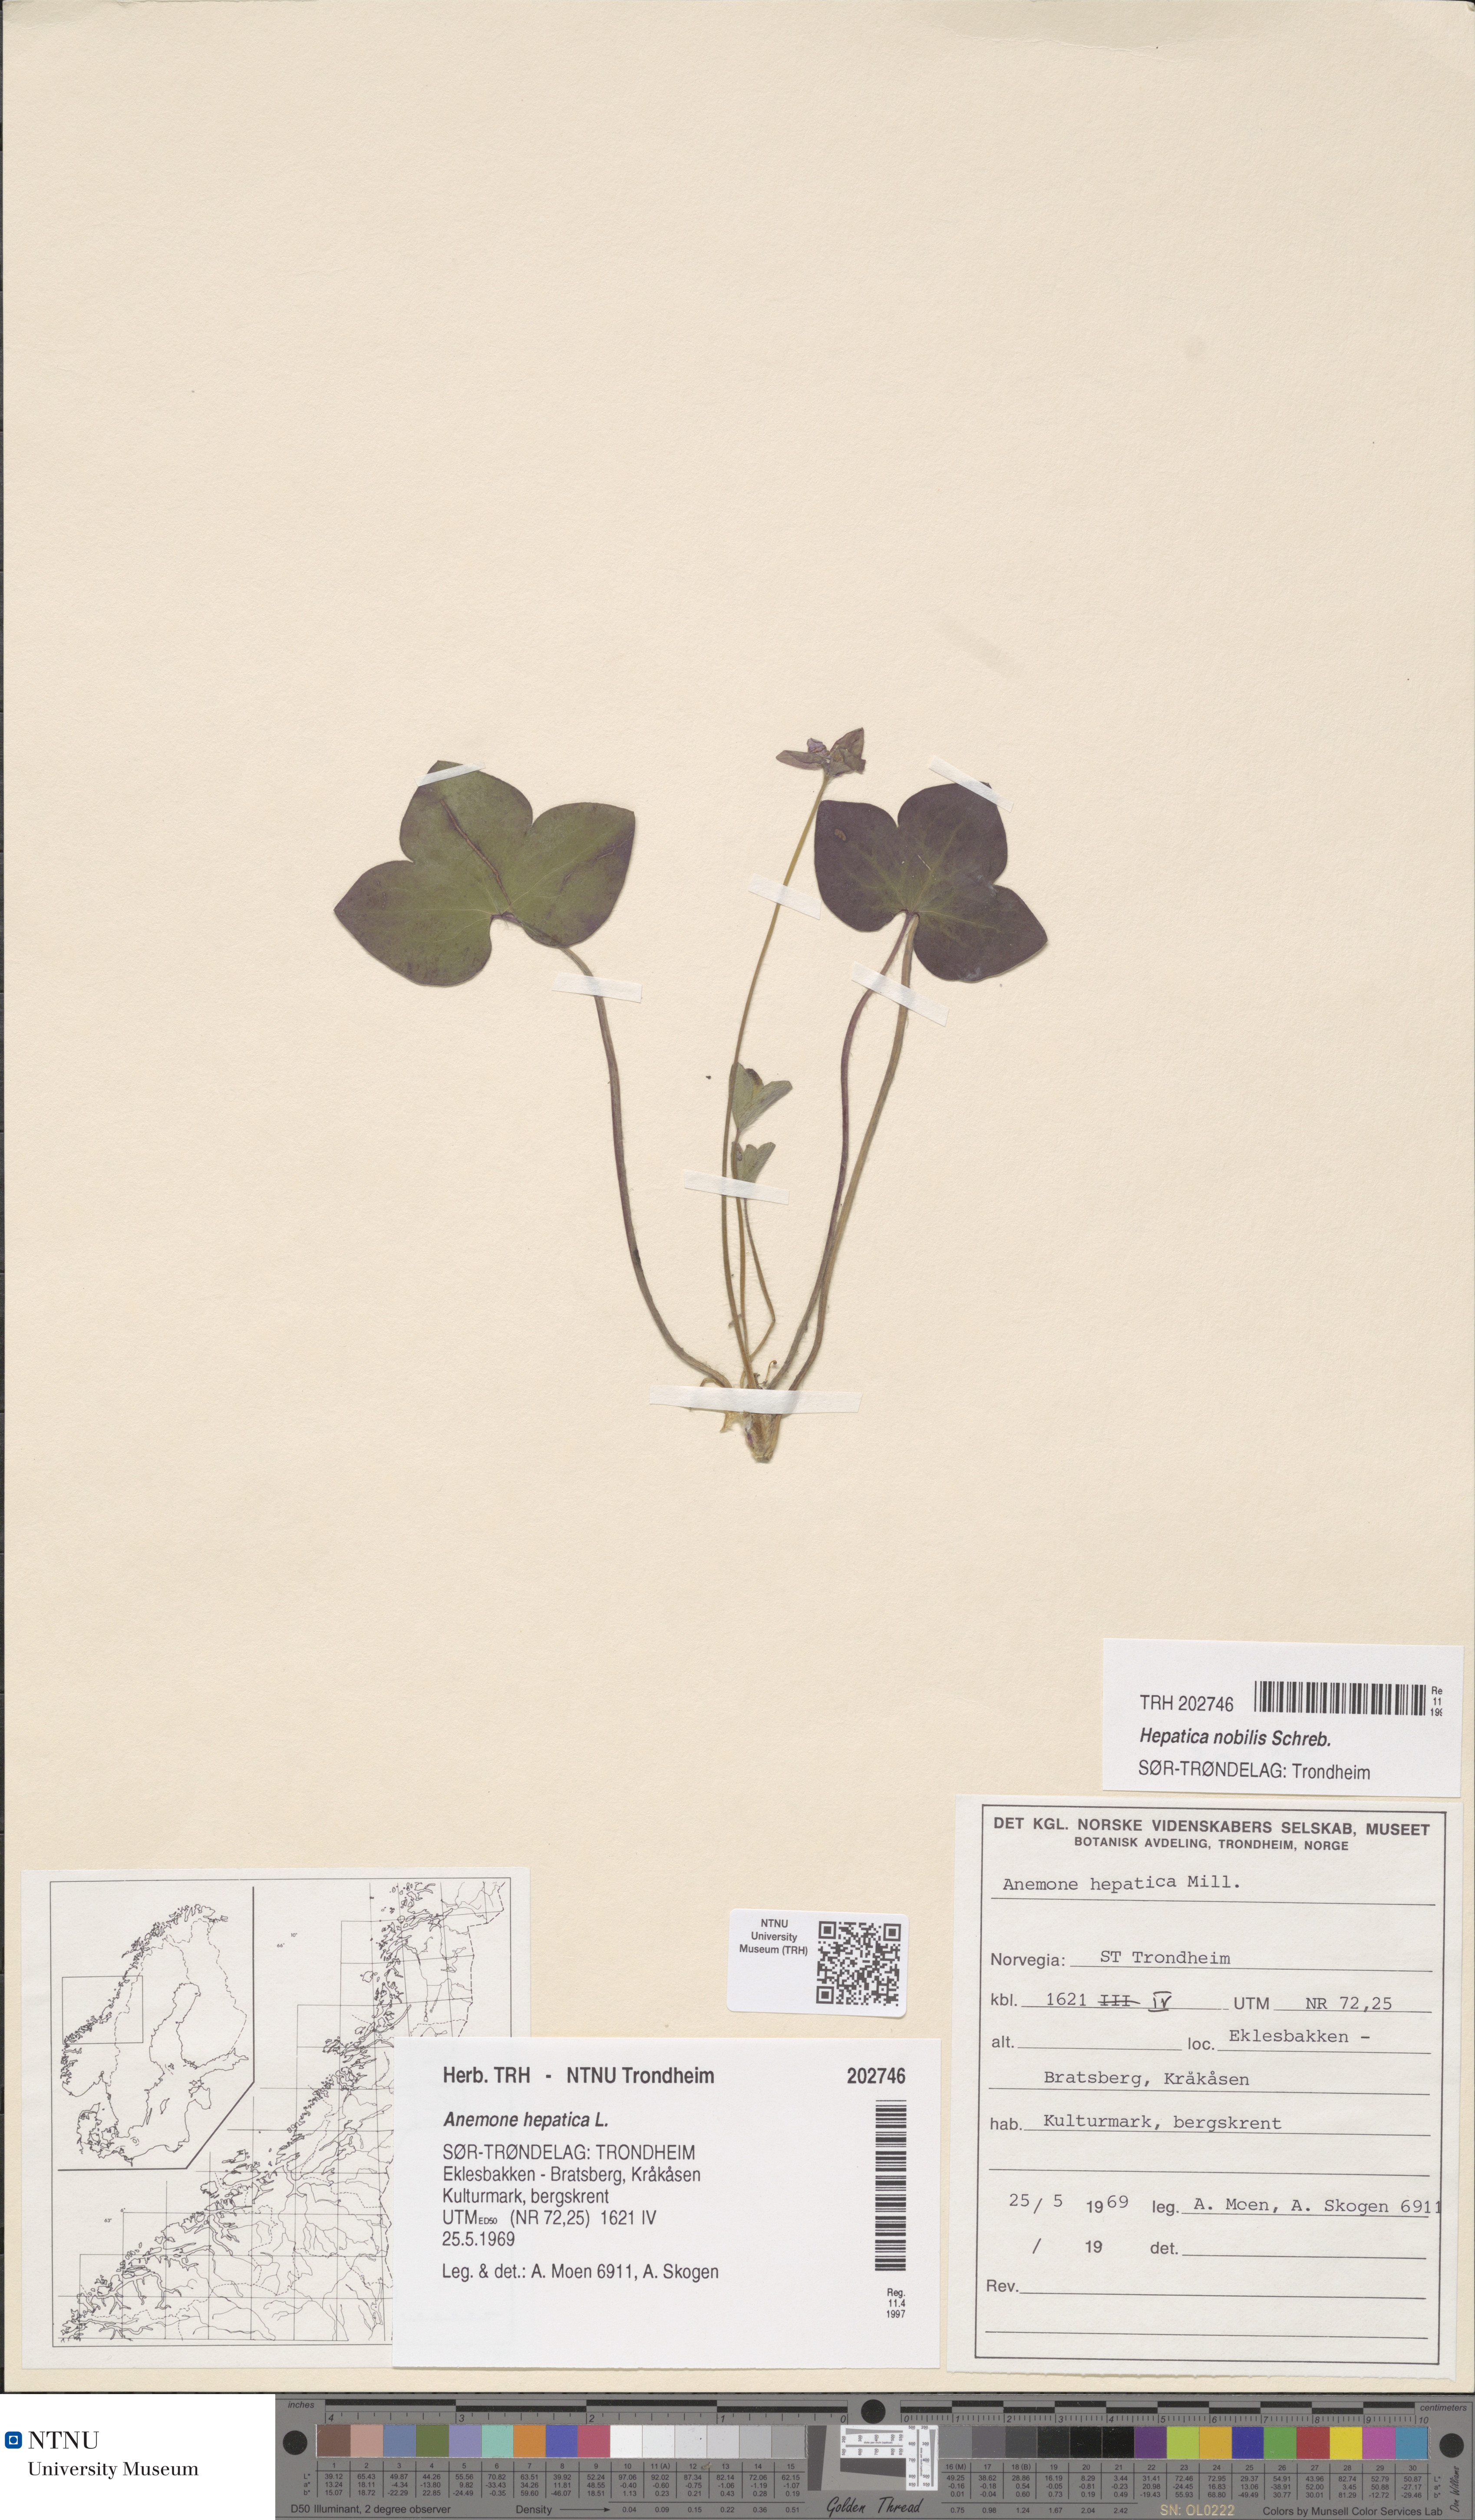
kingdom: Plantae
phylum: Tracheophyta
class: Magnoliopsida
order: Ranunculales
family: Ranunculaceae
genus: Hepatica
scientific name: Hepatica nobilis
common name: Liverleaf
